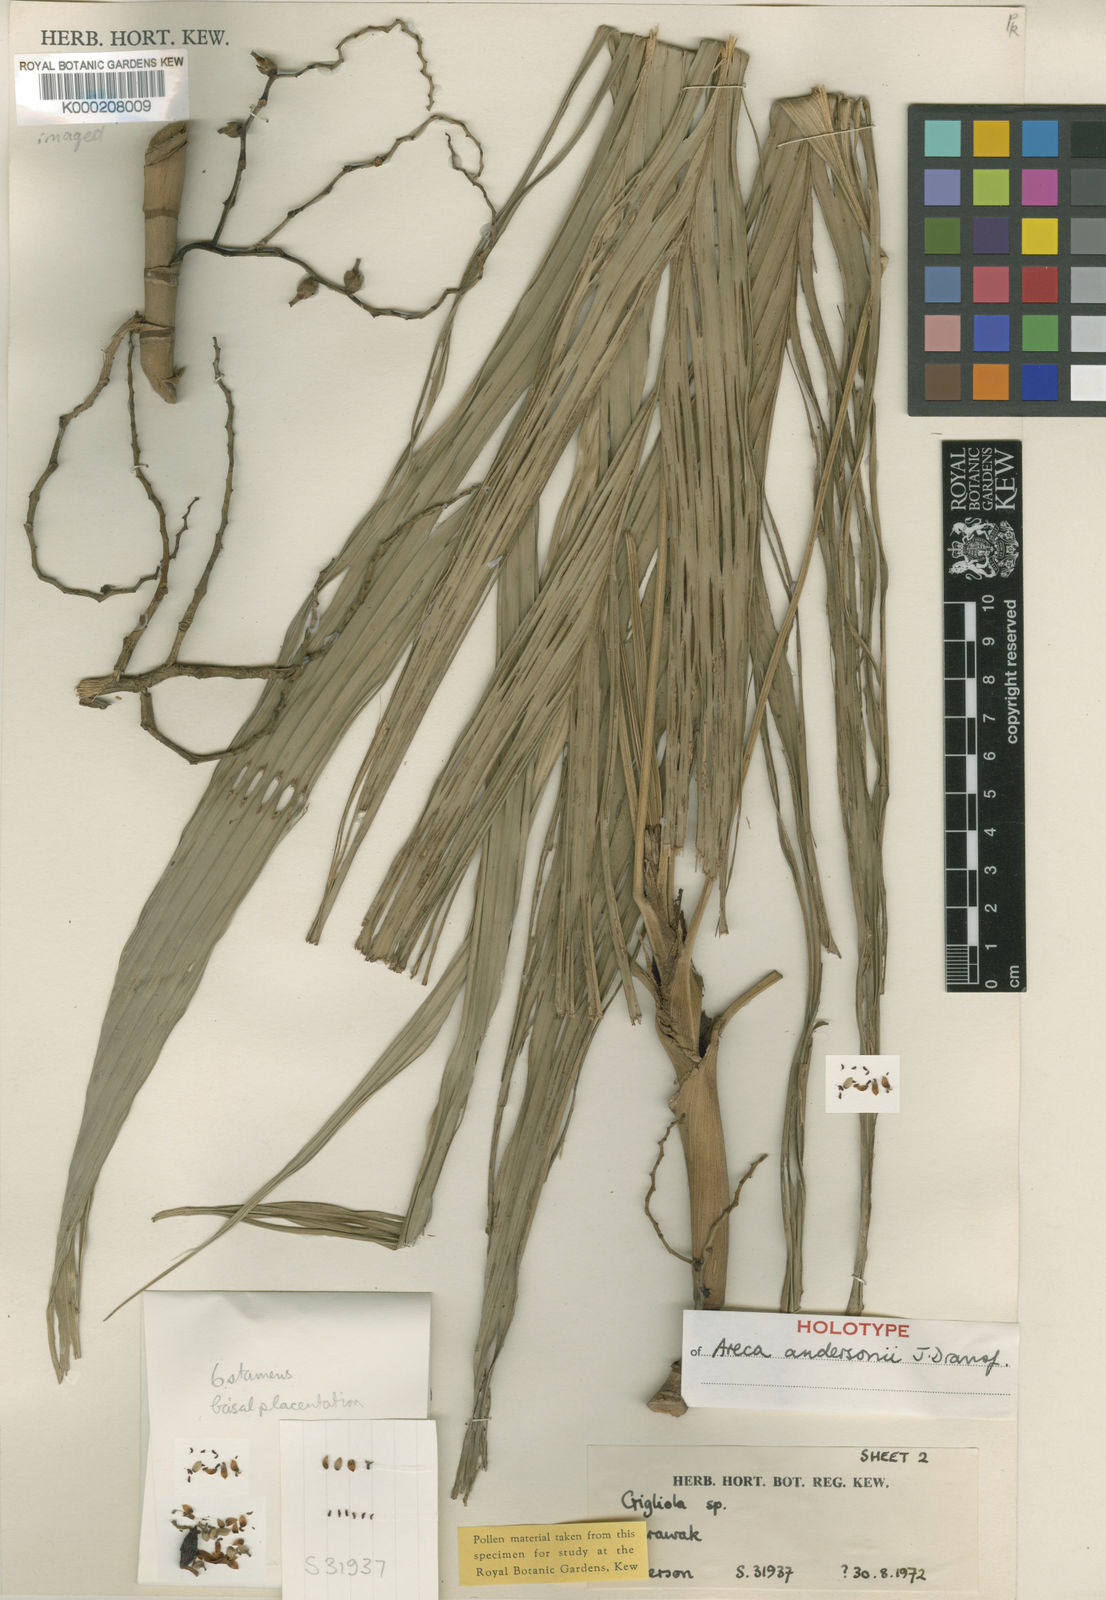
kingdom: Plantae
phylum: Tracheophyta
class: Liliopsida
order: Arecales
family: Arecaceae
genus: Areca
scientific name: Areca andersonii
